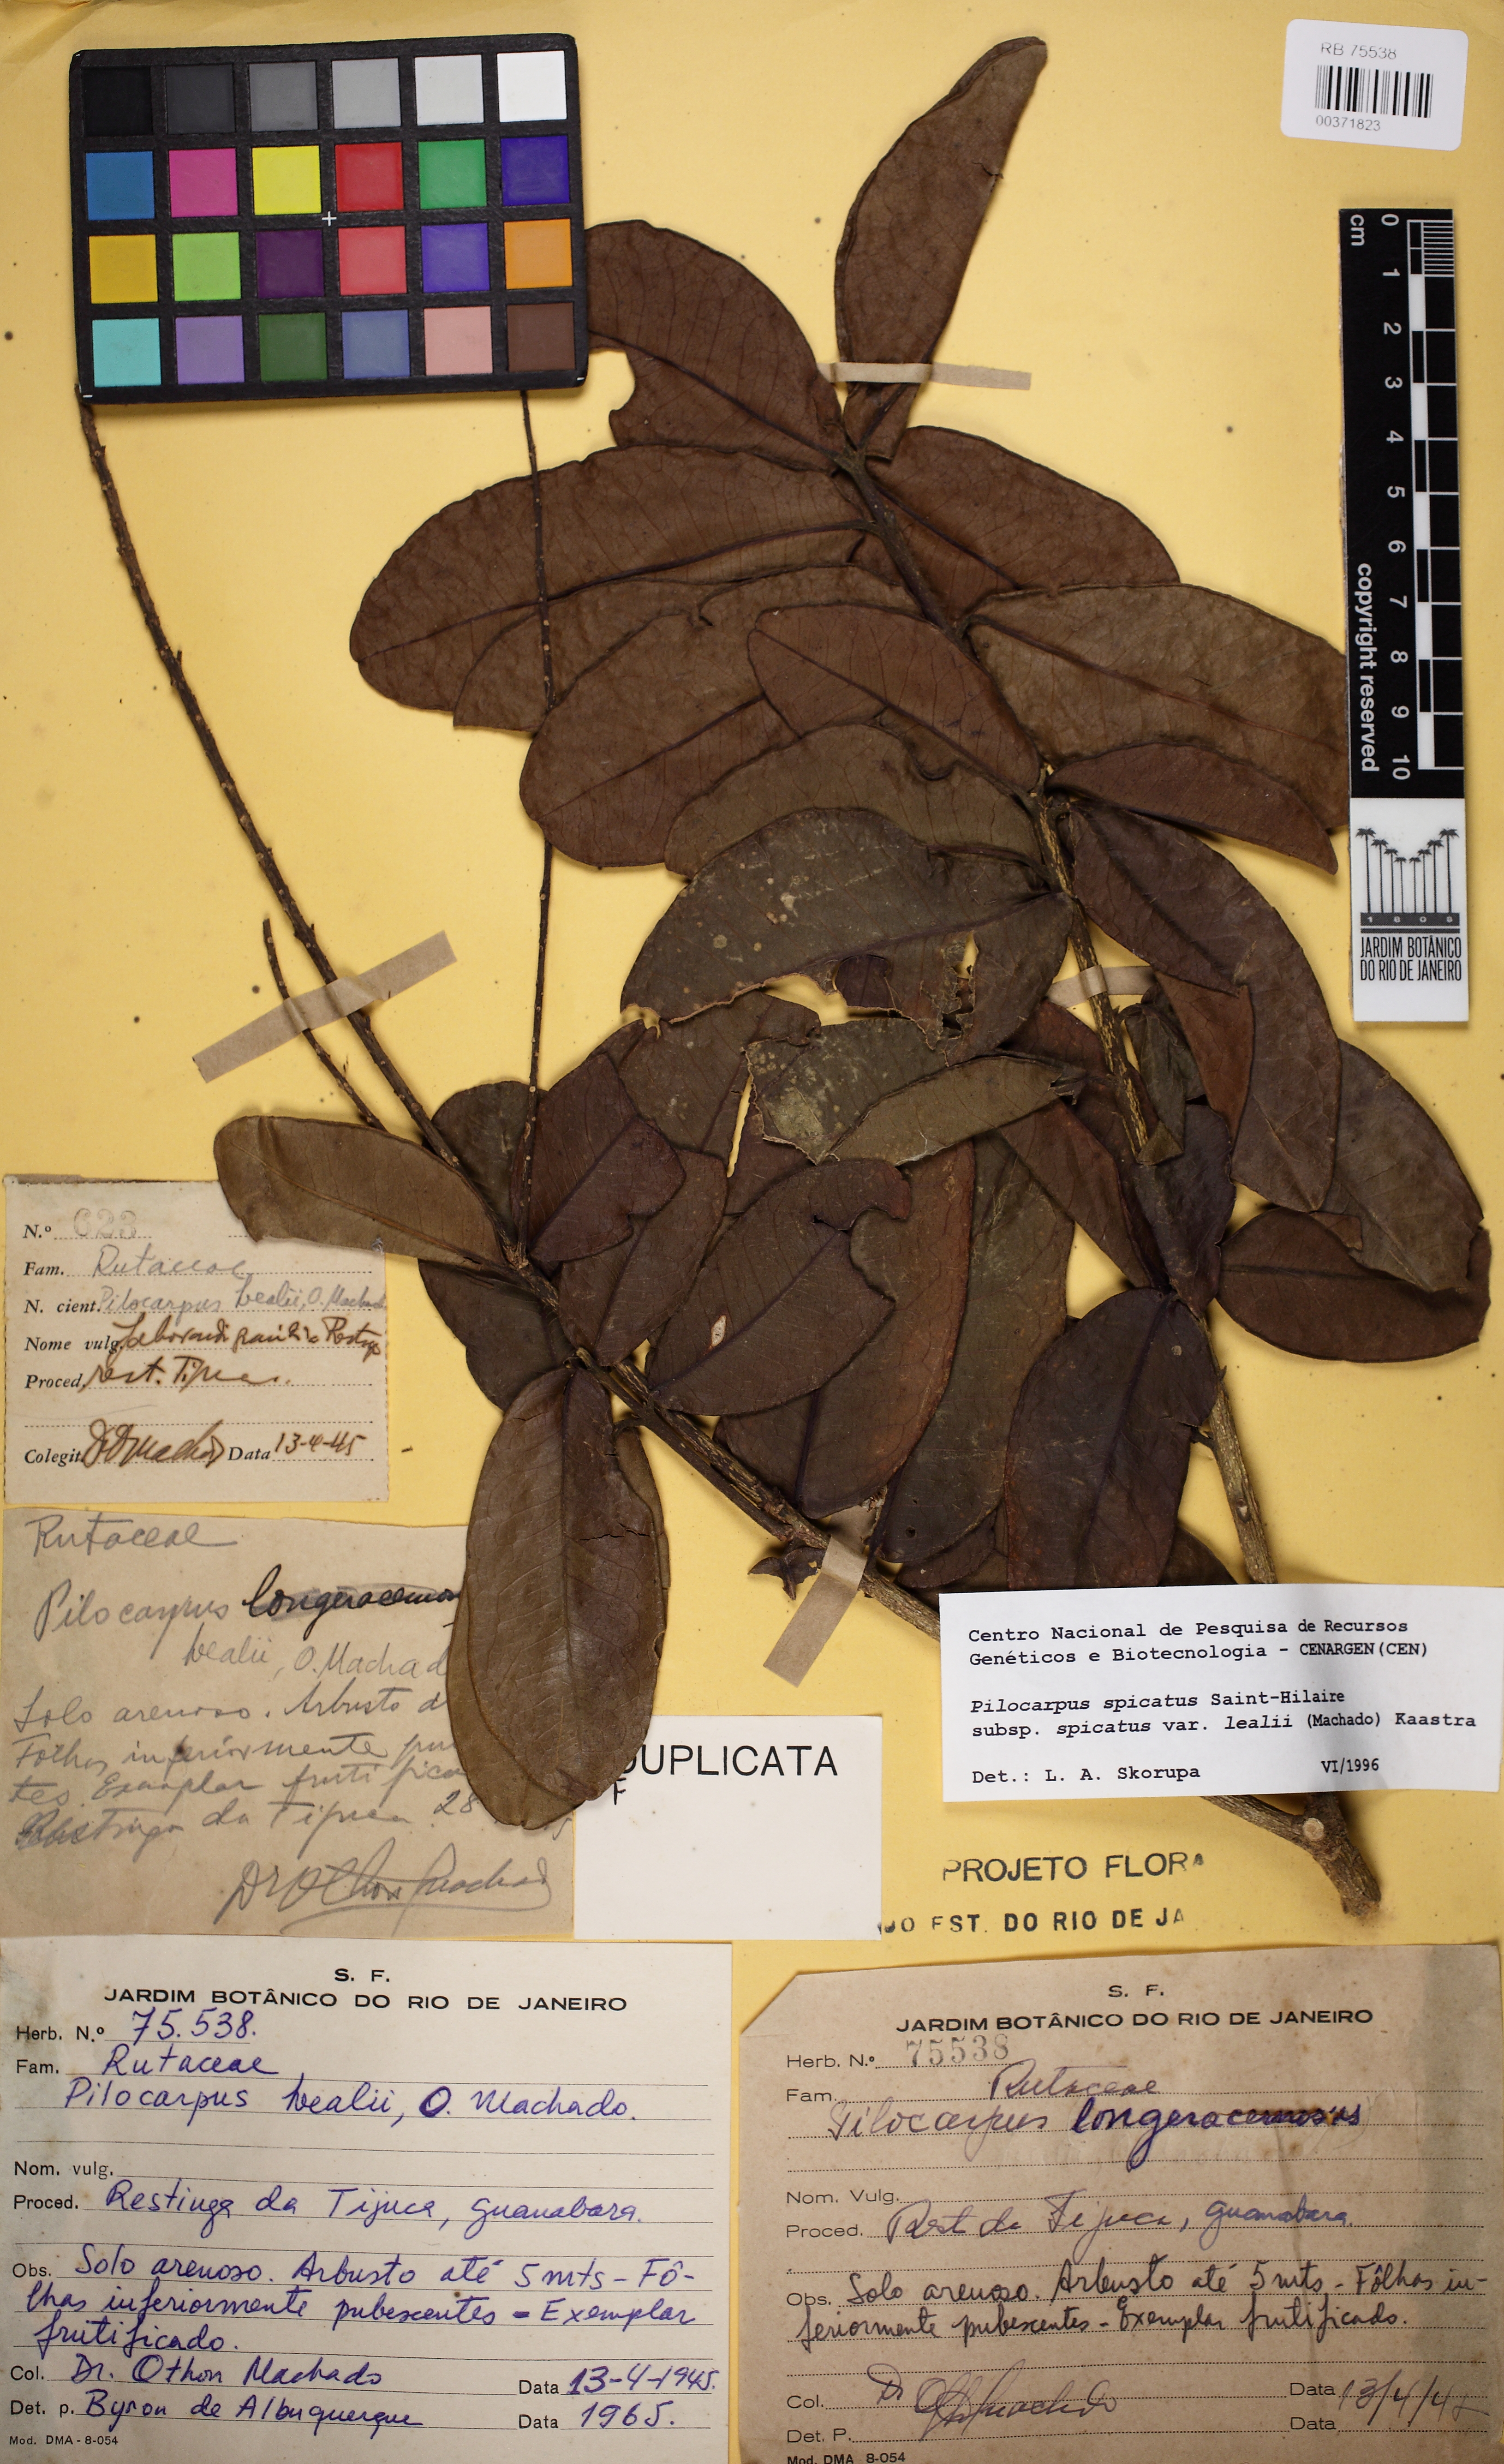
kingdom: Plantae
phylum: Tracheophyta
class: Magnoliopsida
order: Sapindales
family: Rutaceae
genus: Pilocarpus
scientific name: Pilocarpus spicatus
